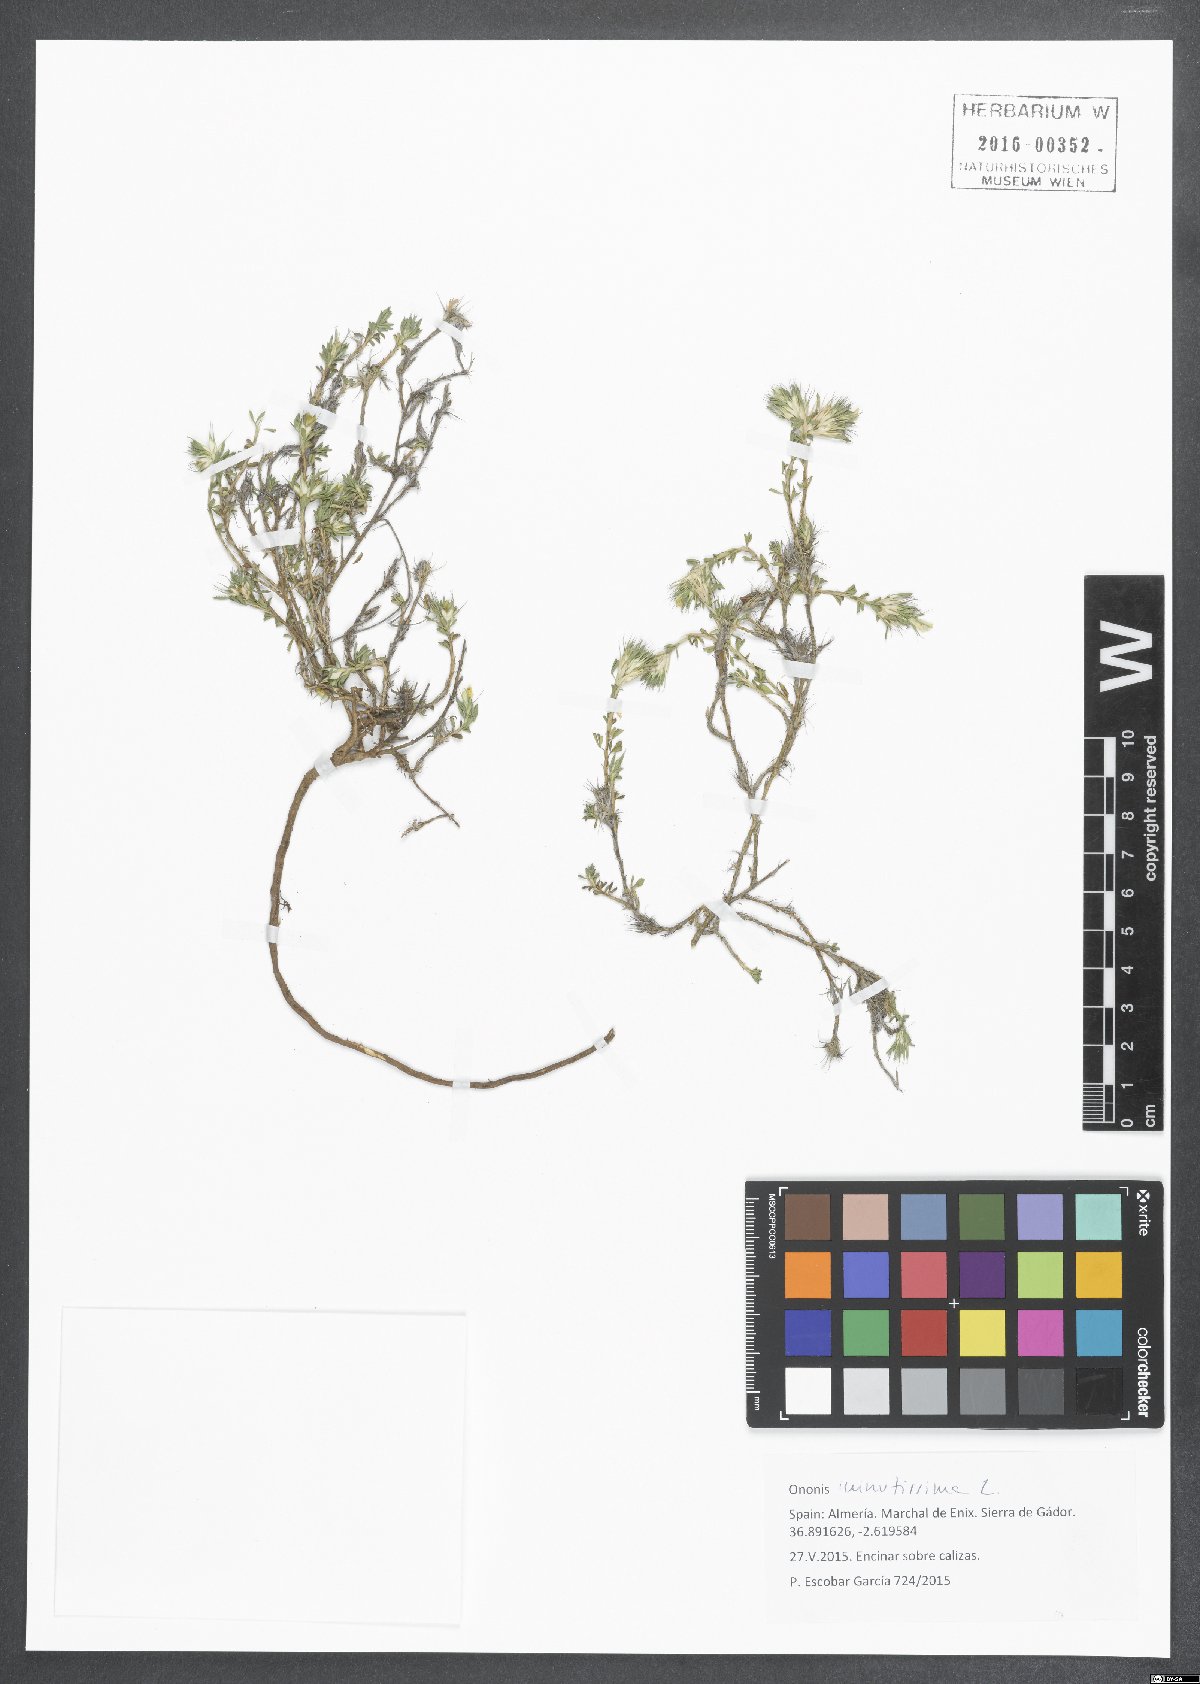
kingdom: Plantae
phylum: Tracheophyta
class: Magnoliopsida
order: Fabales
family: Fabaceae
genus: Ononis
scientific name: Ononis minutissima
